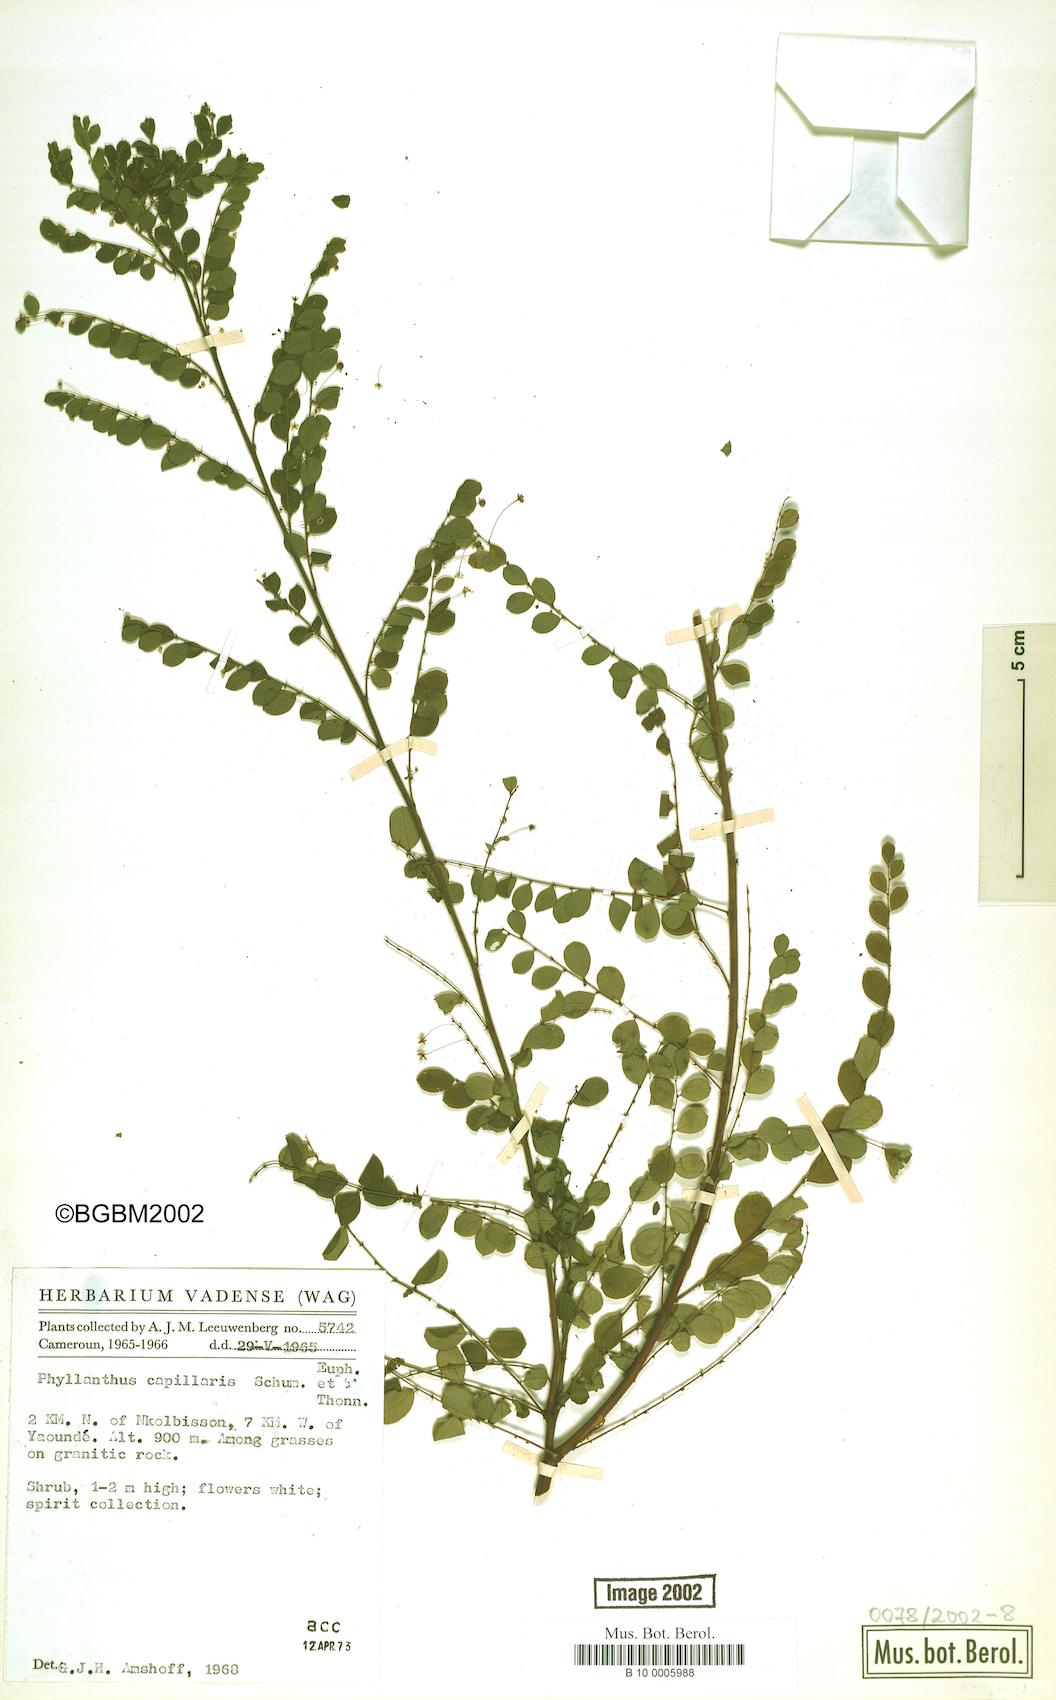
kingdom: Plantae
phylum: Tracheophyta
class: Magnoliopsida
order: Malpighiales
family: Phyllanthaceae
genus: Phyllanthus
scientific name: Phyllanthus nummulariifolius
